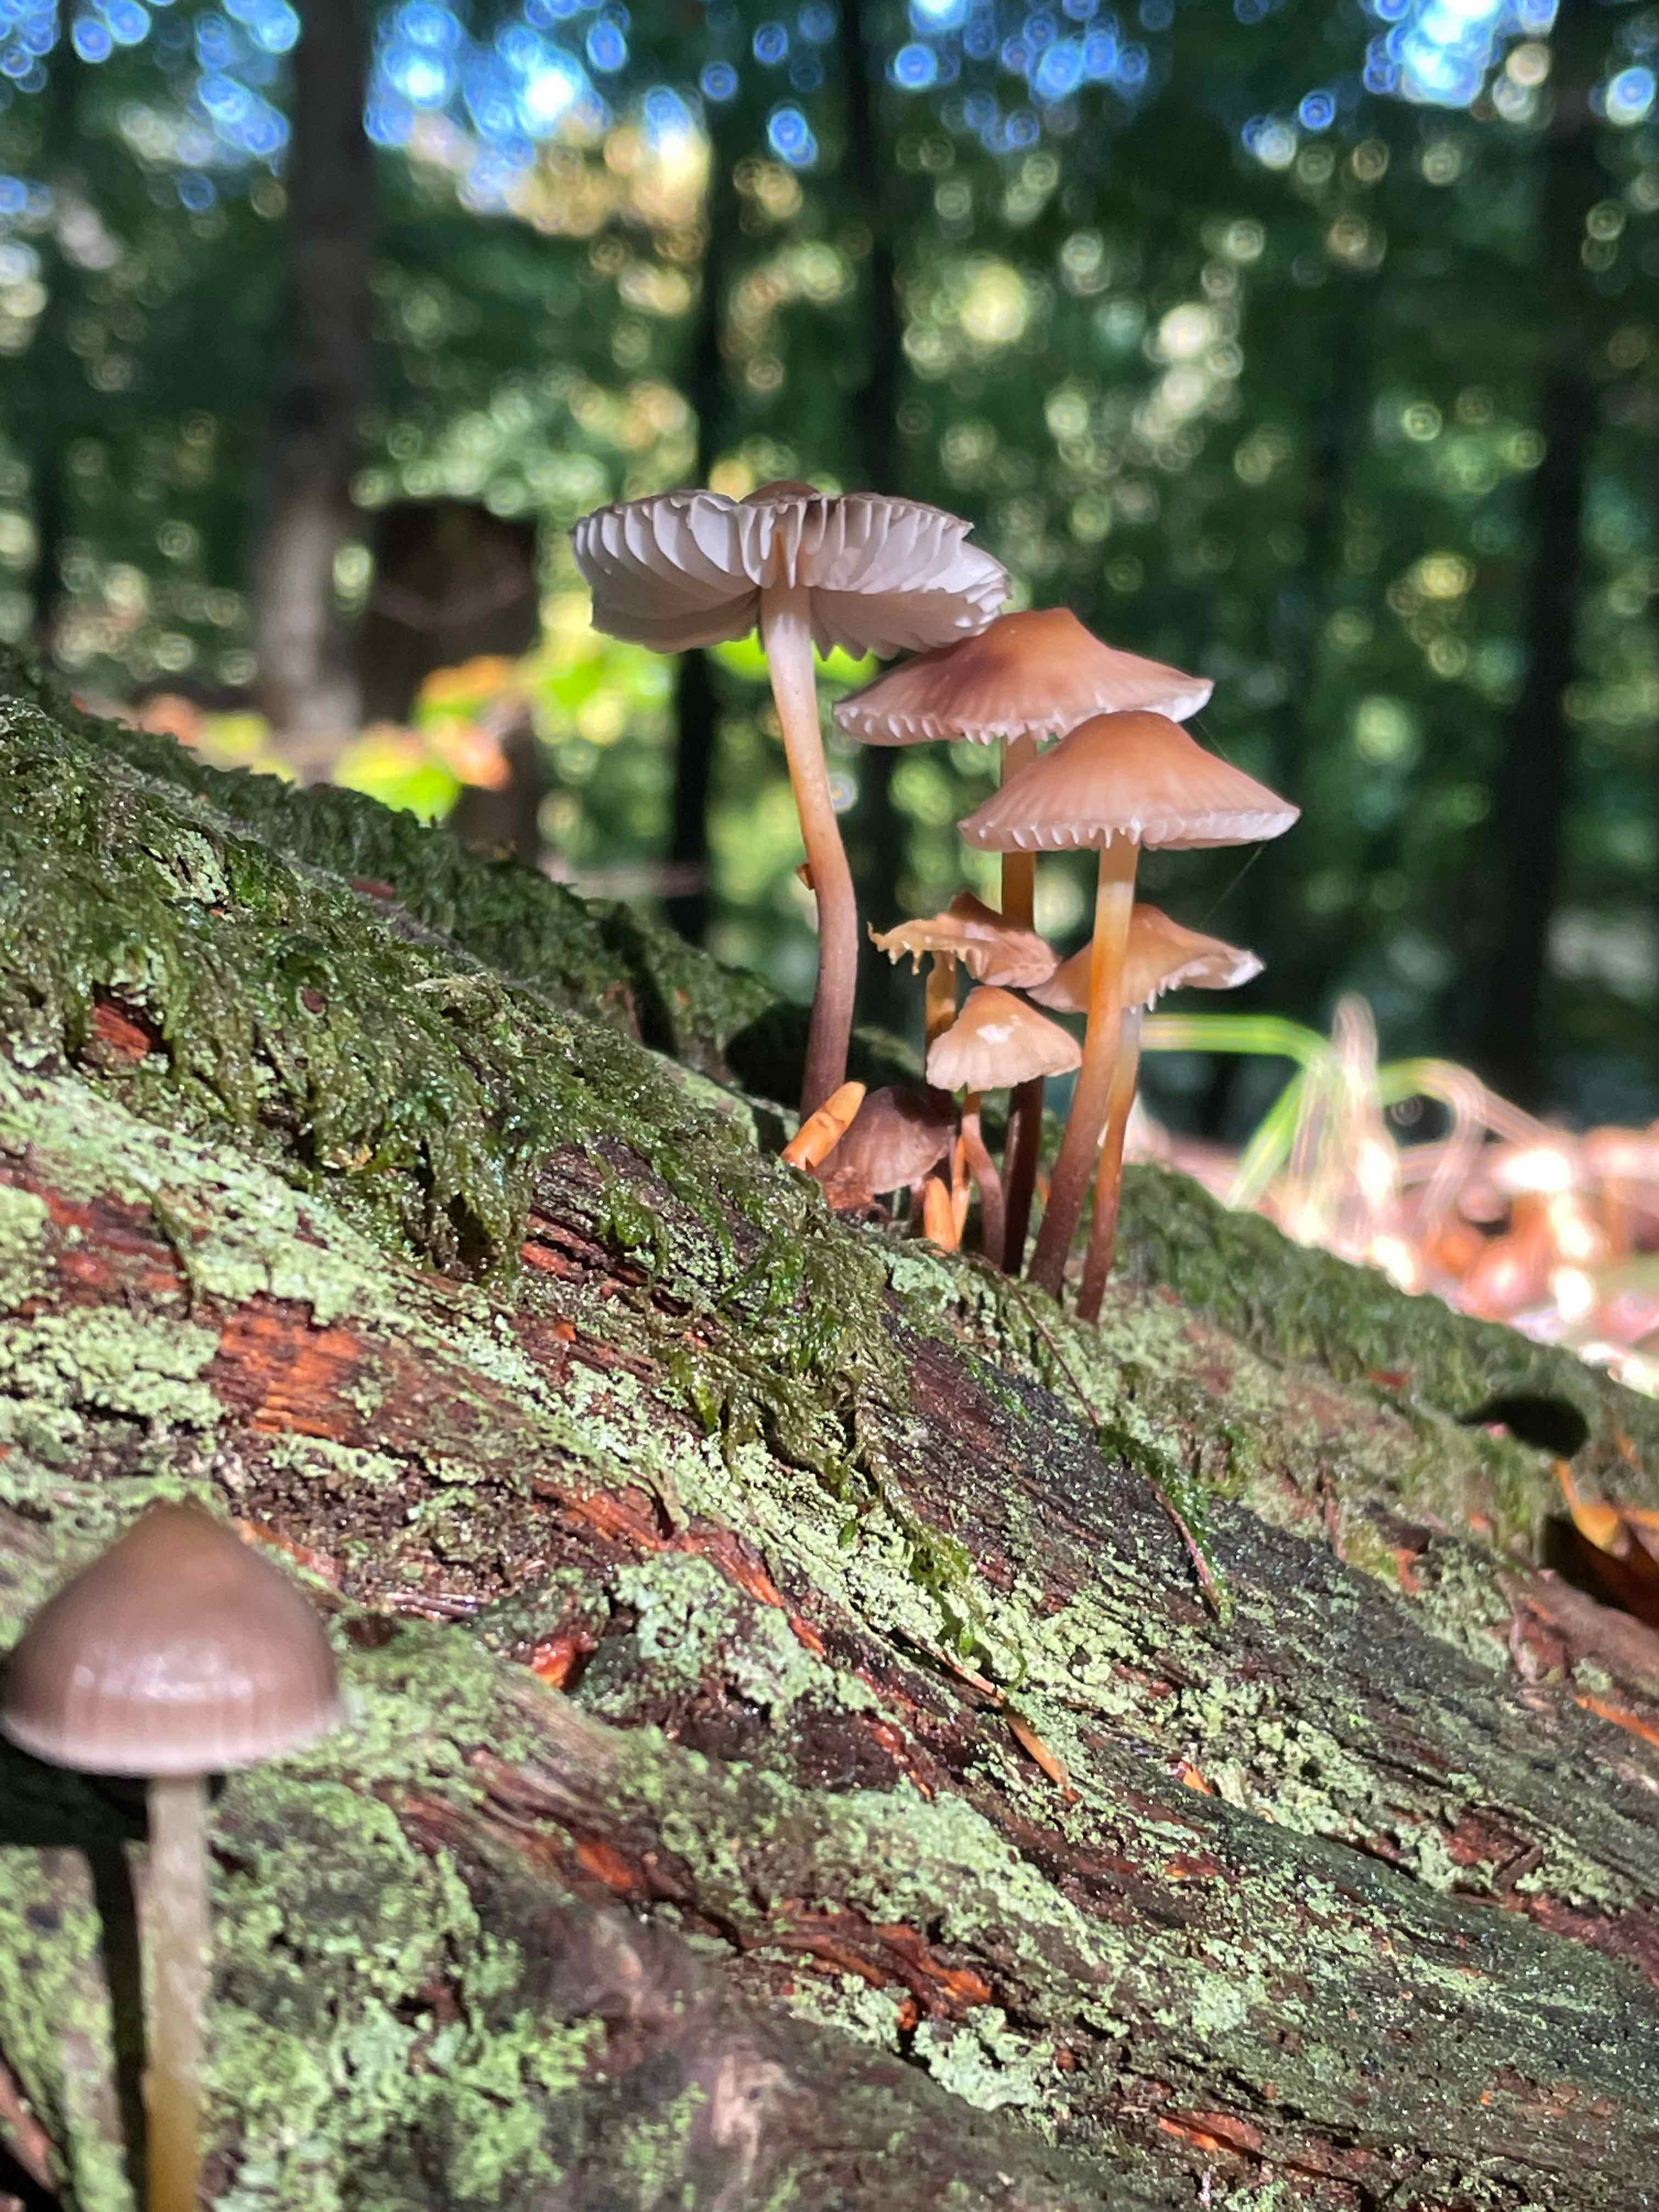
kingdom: Fungi
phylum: Basidiomycota
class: Agaricomycetes
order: Agaricales
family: Mycenaceae
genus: Mycena
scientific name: Mycena inclinata
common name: nikkende huesvamp
